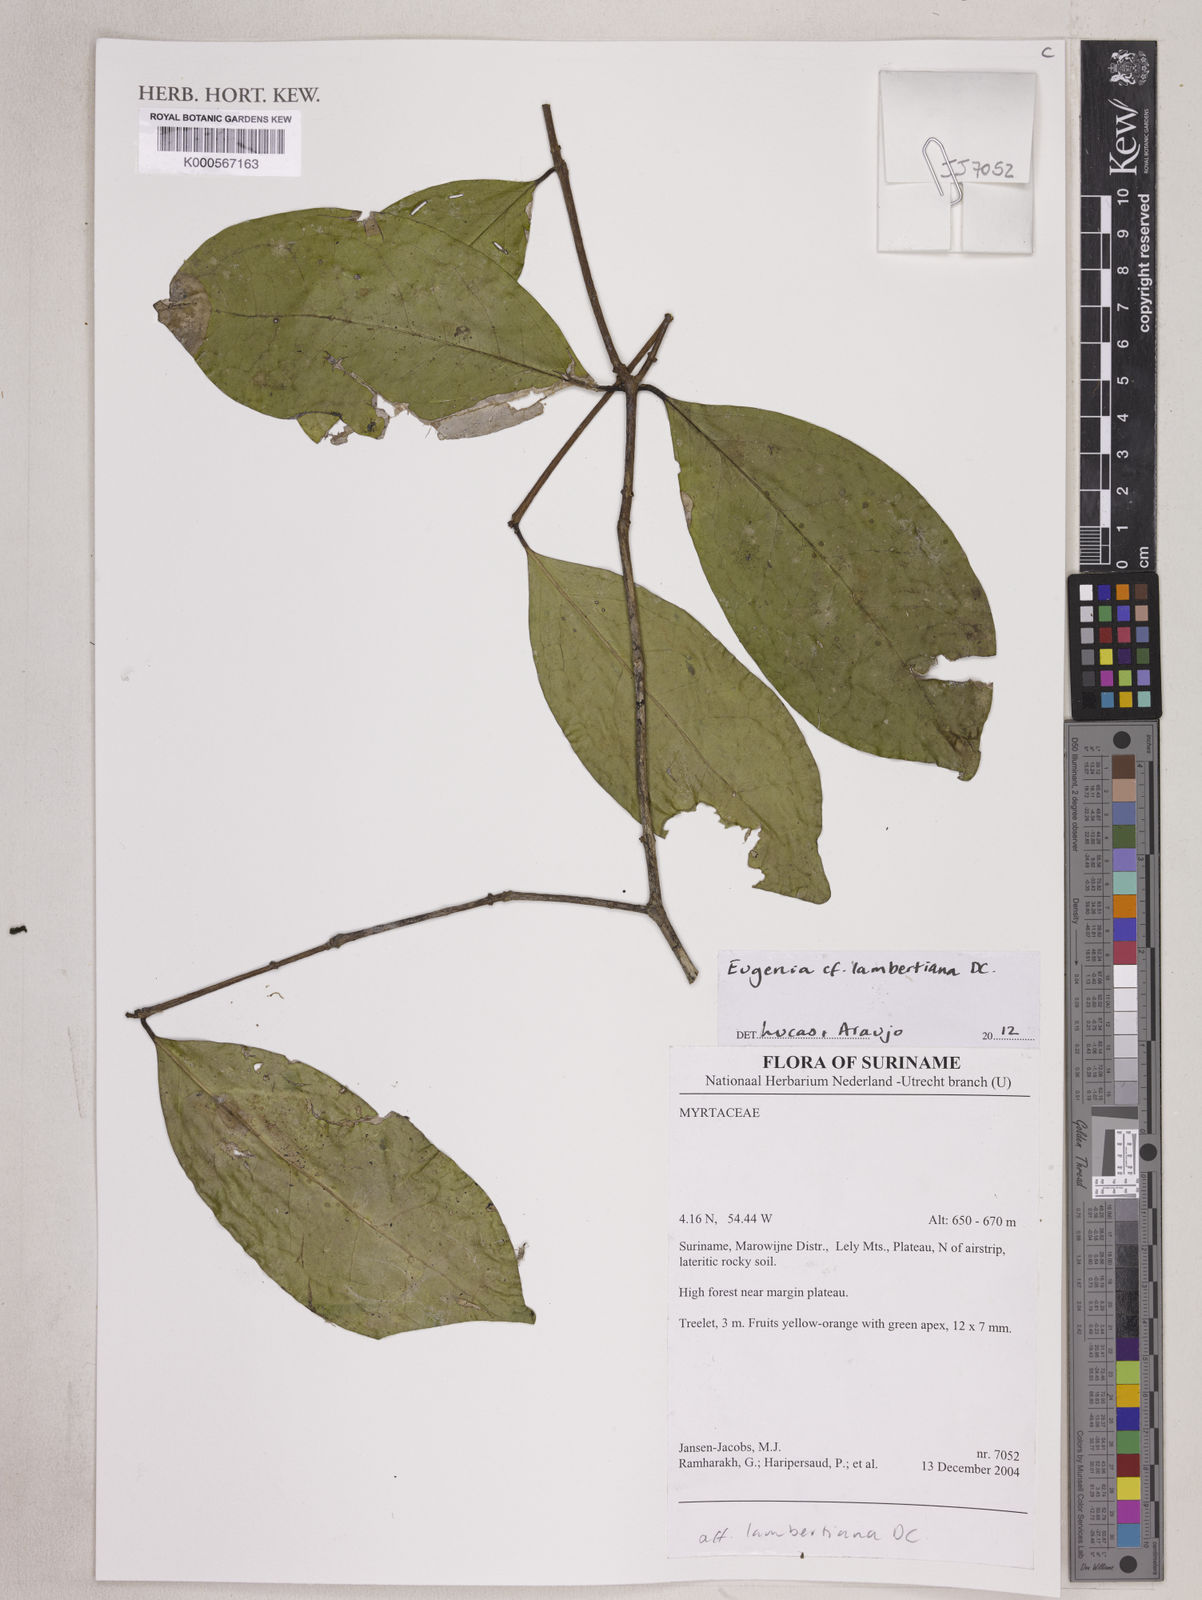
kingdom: Plantae
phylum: Tracheophyta
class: Magnoliopsida
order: Myrtales
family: Myrtaceae
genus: Eugenia
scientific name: Eugenia lambertiana
